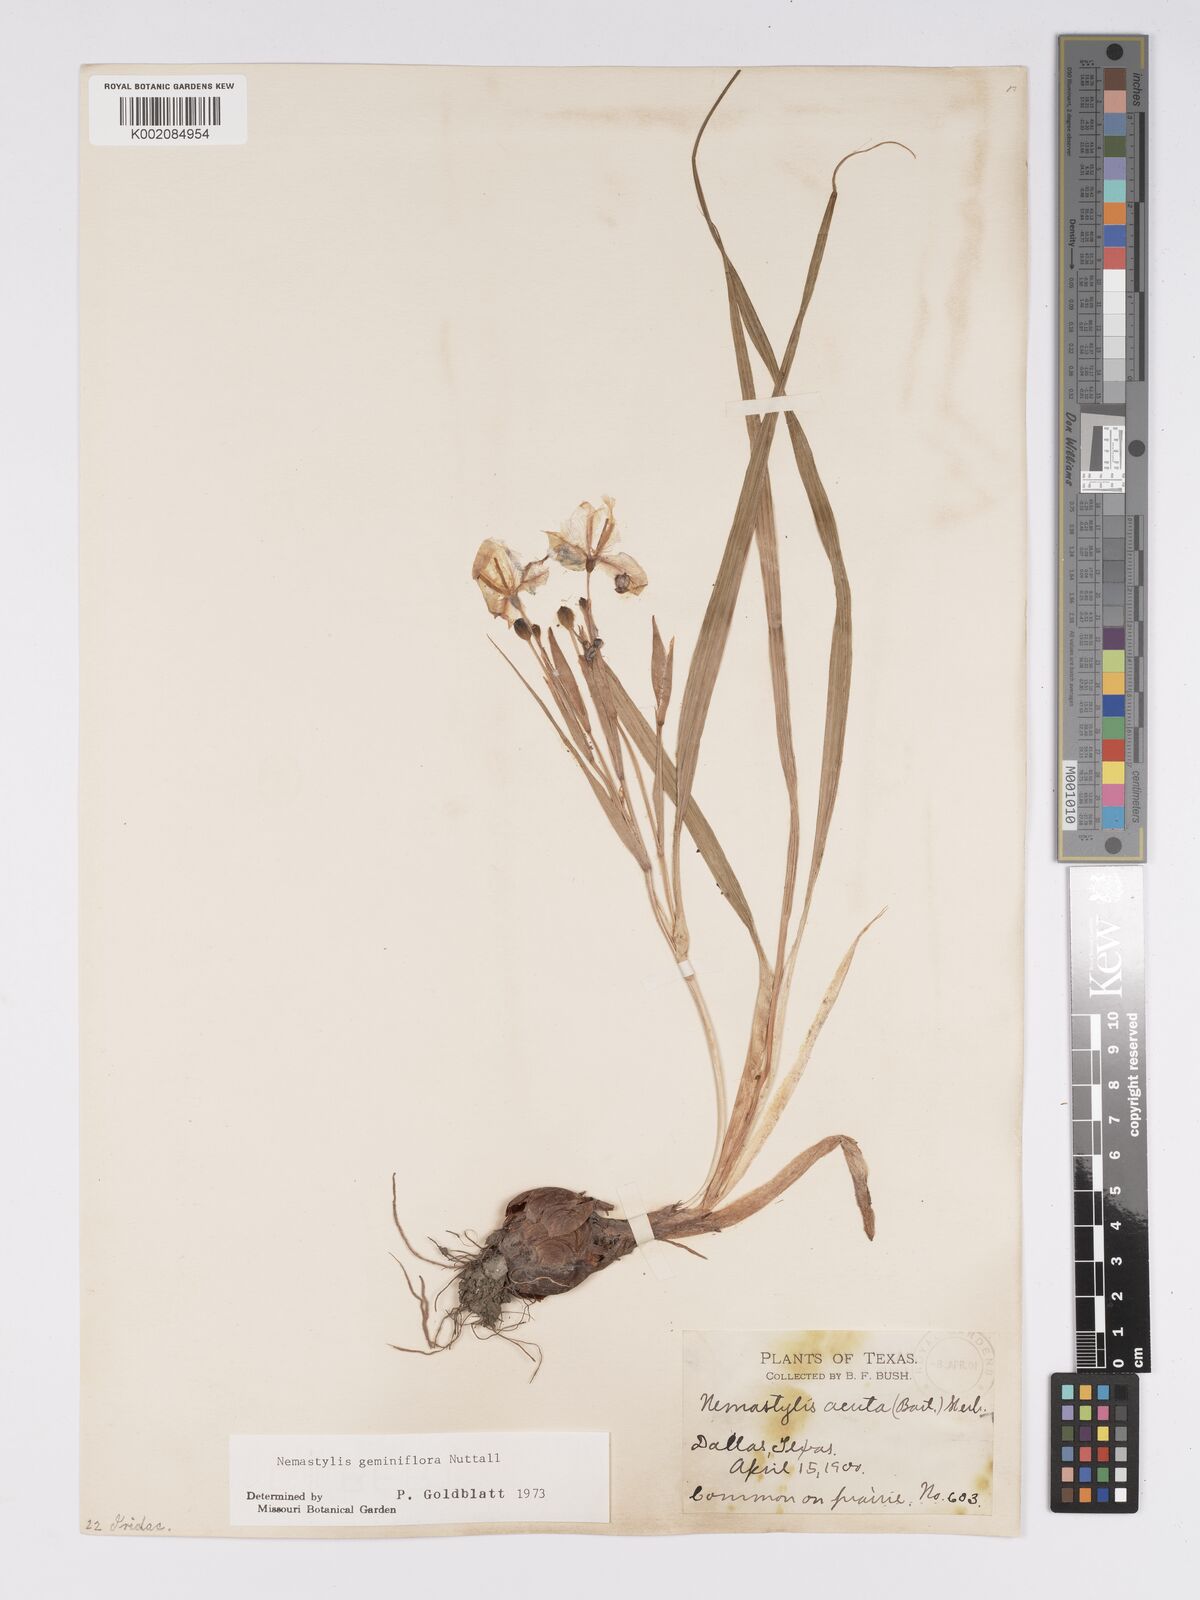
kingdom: Plantae
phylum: Tracheophyta
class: Liliopsida
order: Asparagales
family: Iridaceae
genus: Nemastylis
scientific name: Nemastylis geminiflora
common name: Prairie celestial
